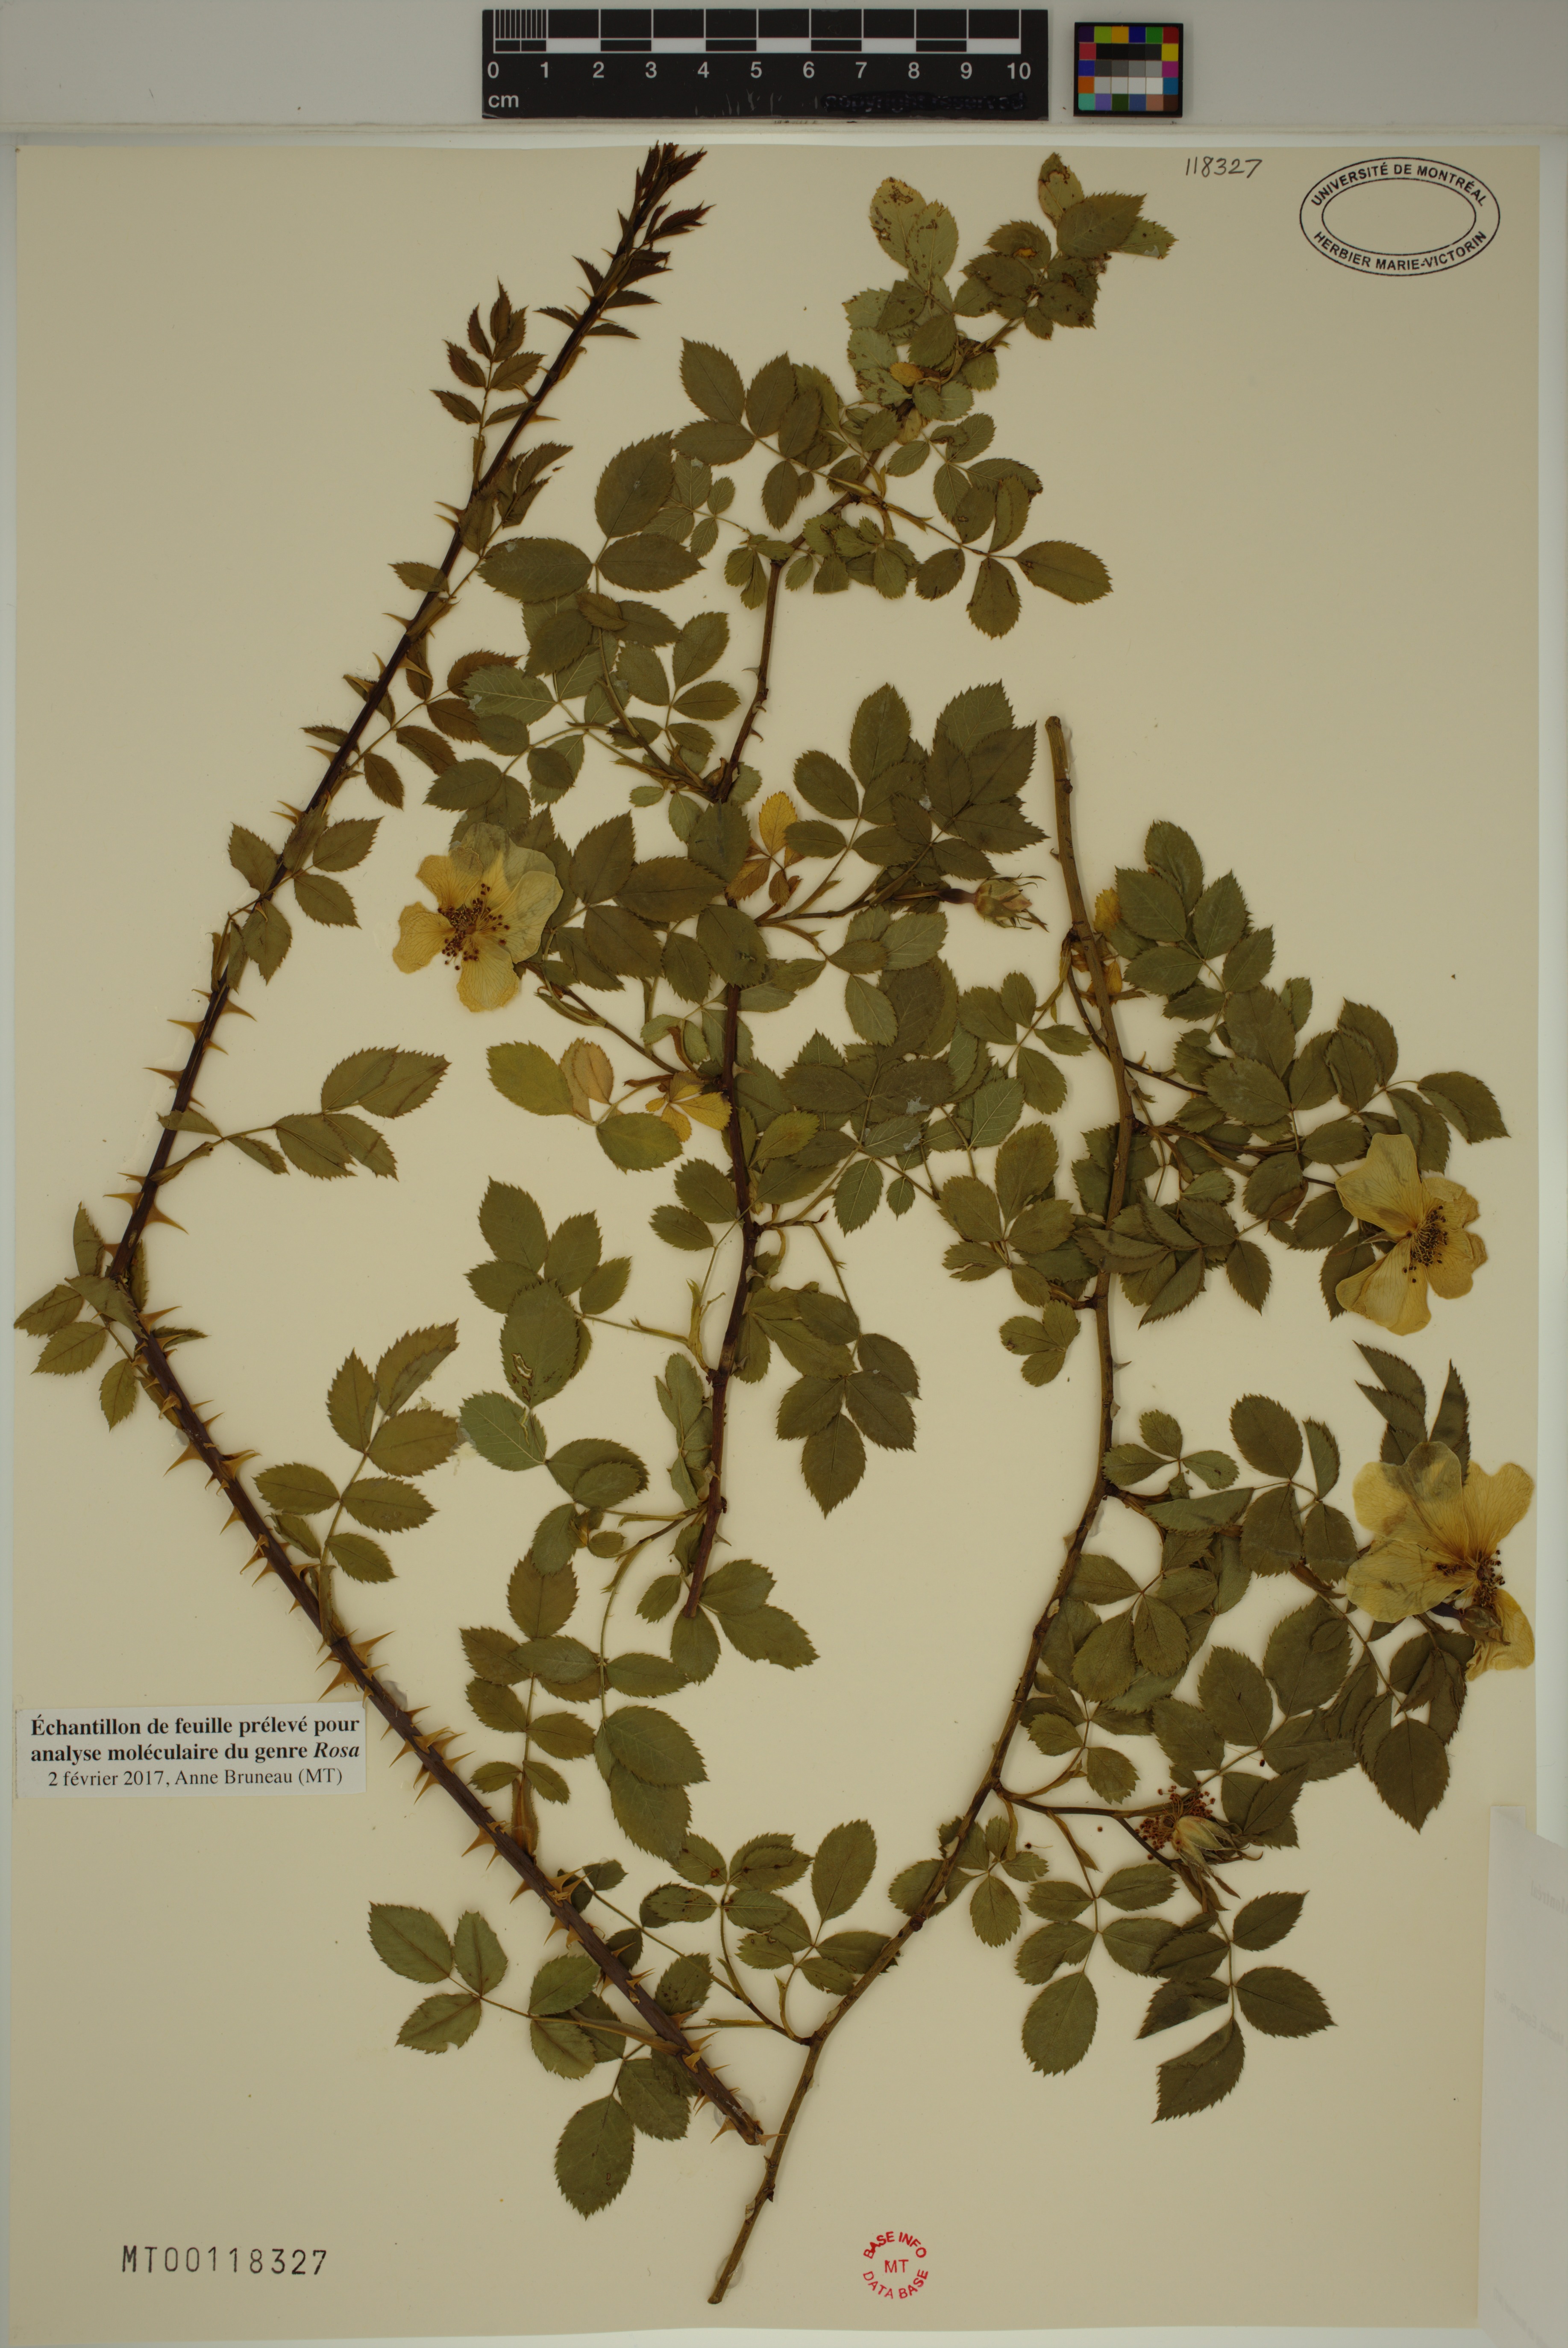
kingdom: Plantae
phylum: Tracheophyta
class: Magnoliopsida
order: Rosales
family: Rosaceae
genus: Rosa
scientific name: Rosa moschata
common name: Musk rose
